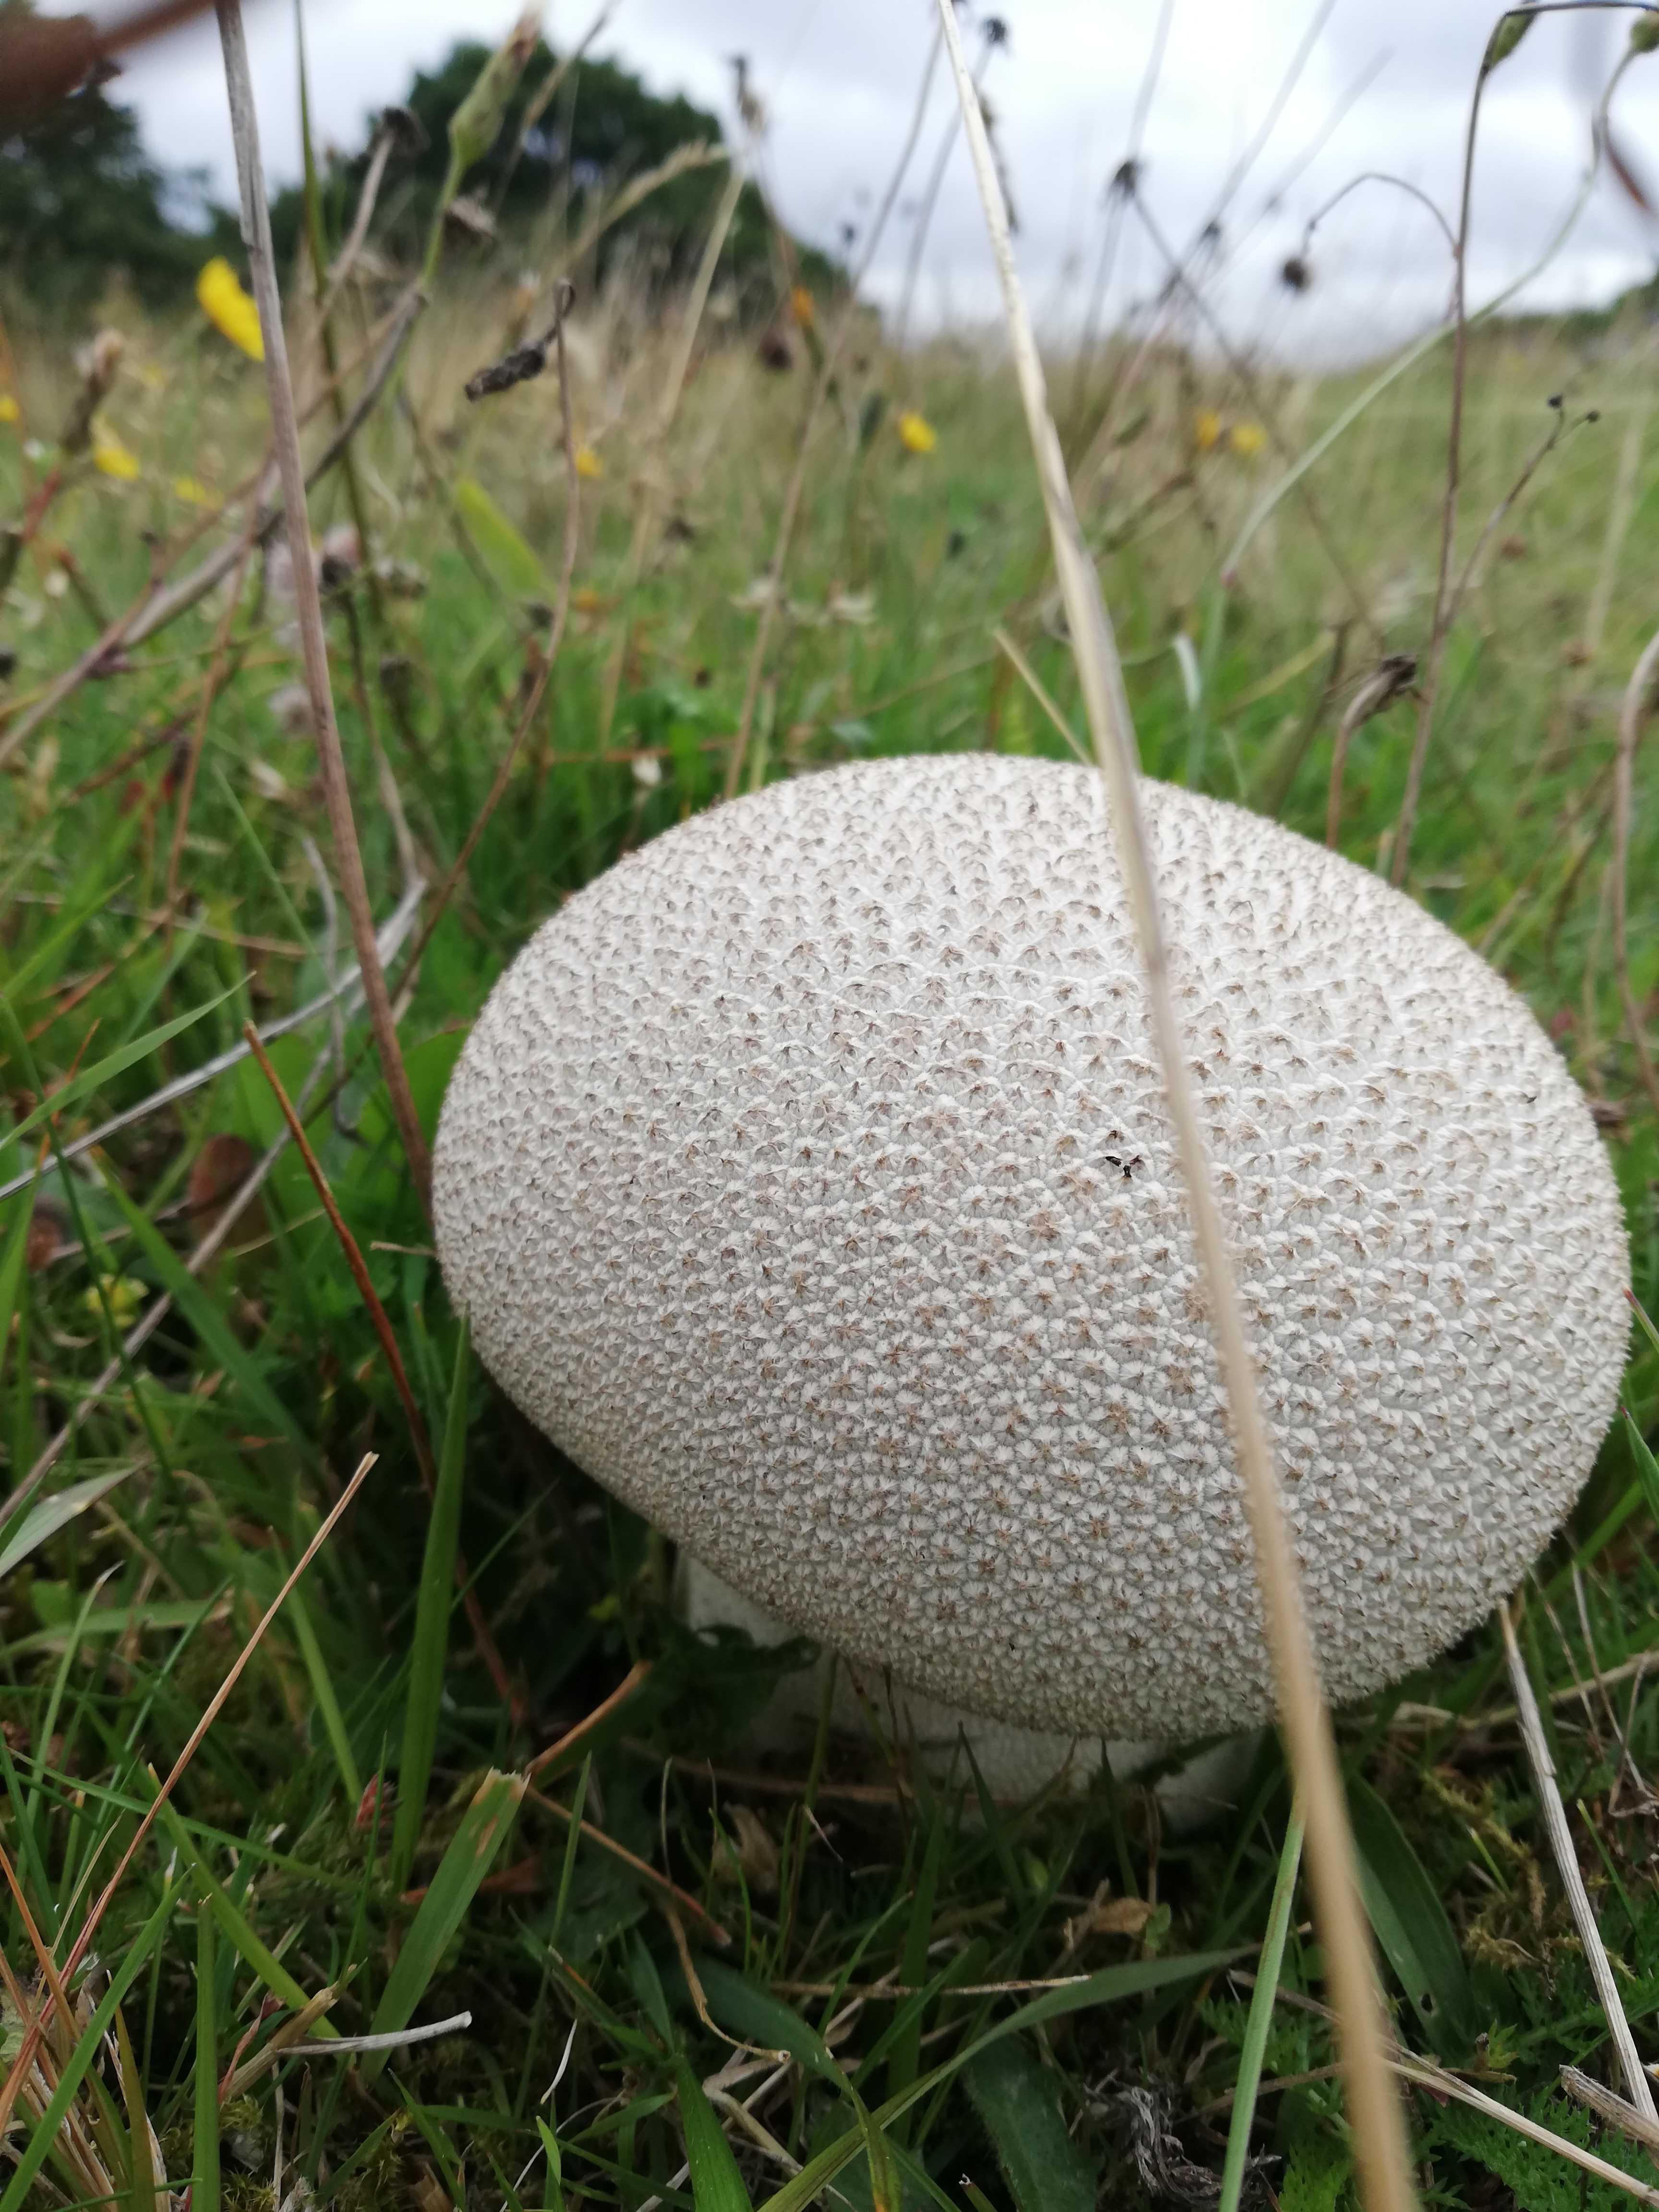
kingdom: Fungi
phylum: Basidiomycota
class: Agaricomycetes
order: Agaricales
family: Lycoperdaceae
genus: Bovistella
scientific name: Bovistella utriformis
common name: skællet støvbold
